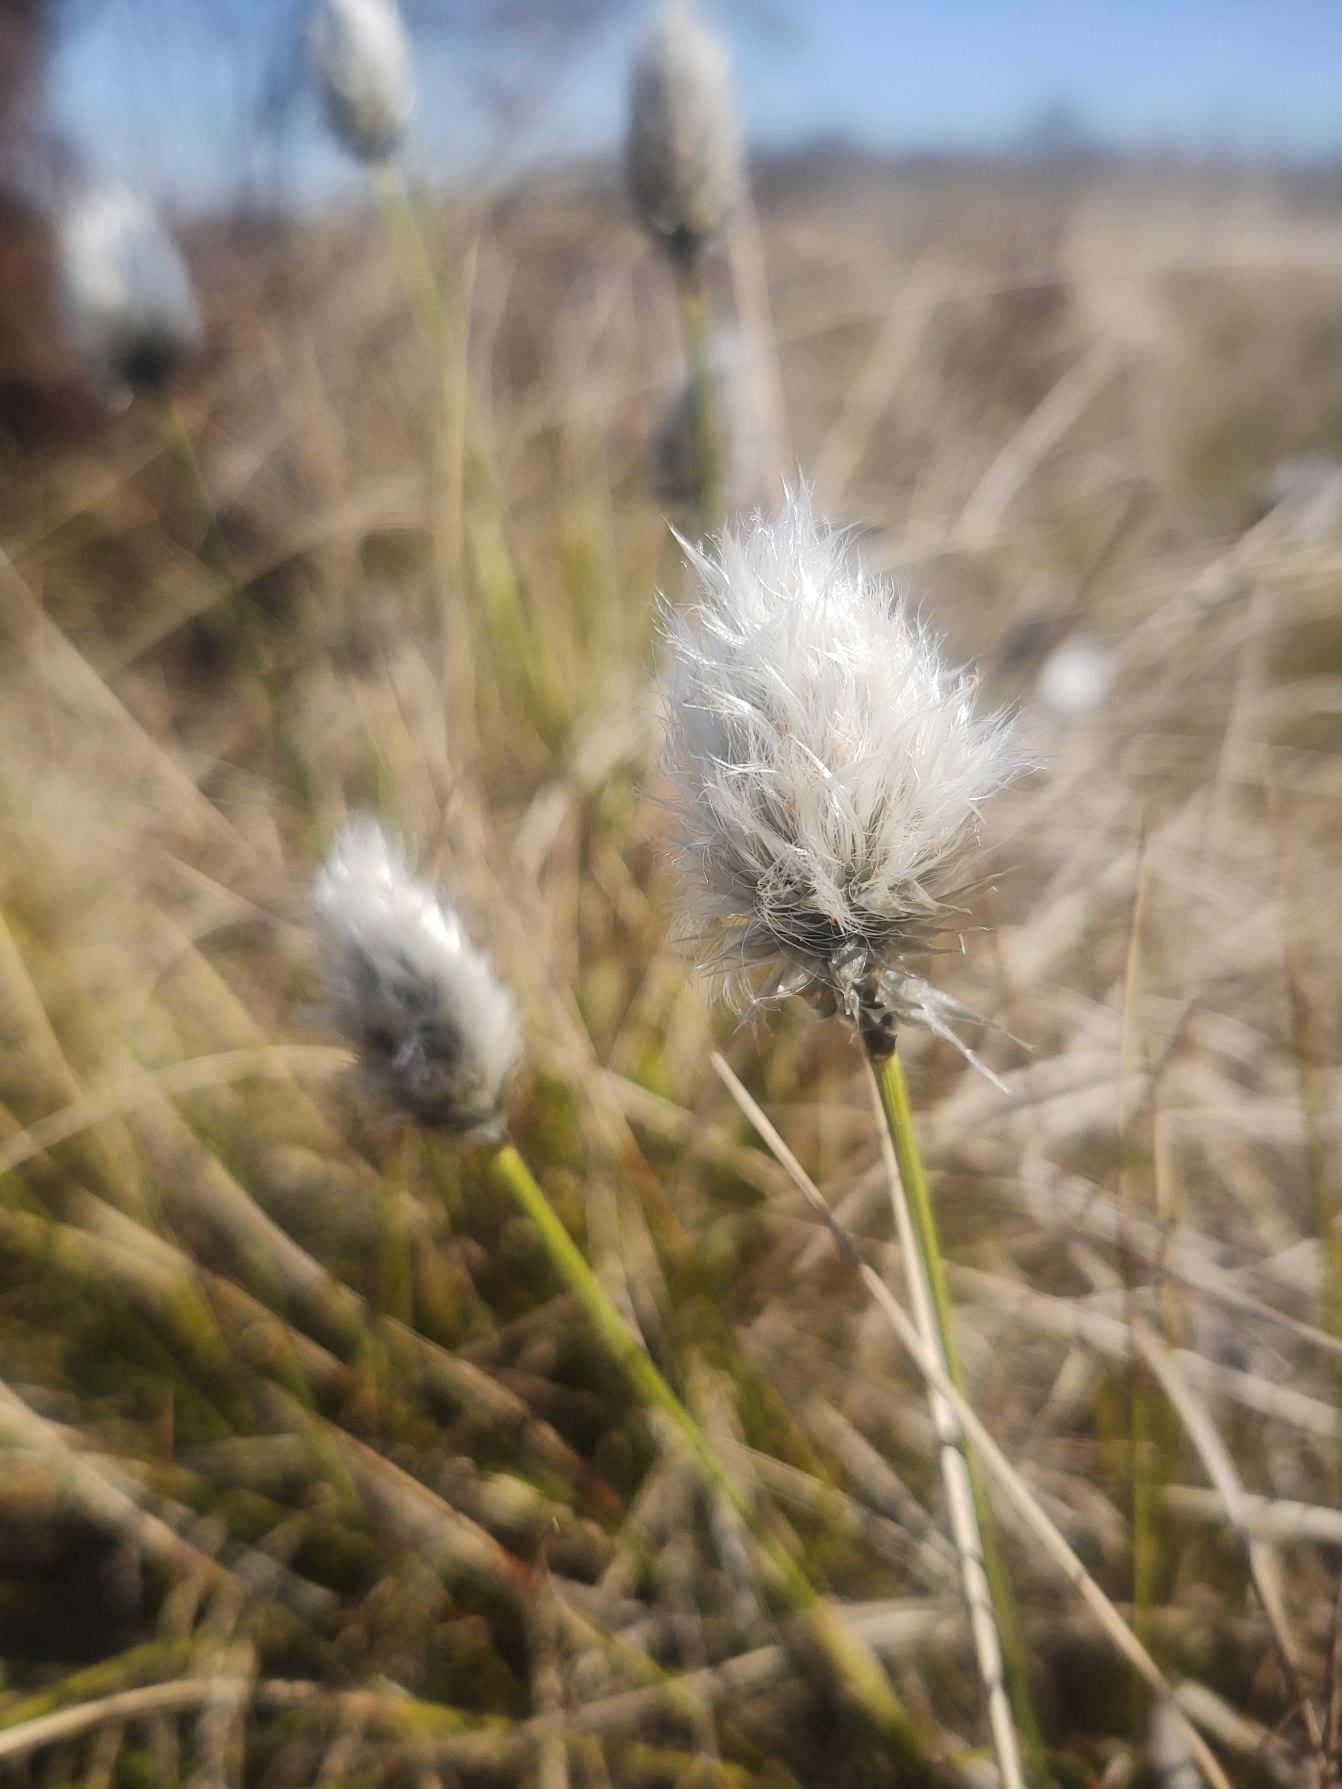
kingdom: Plantae
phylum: Tracheophyta
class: Liliopsida
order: Poales
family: Cyperaceae
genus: Eriophorum
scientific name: Eriophorum vaginatum
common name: Tue-kæruld
